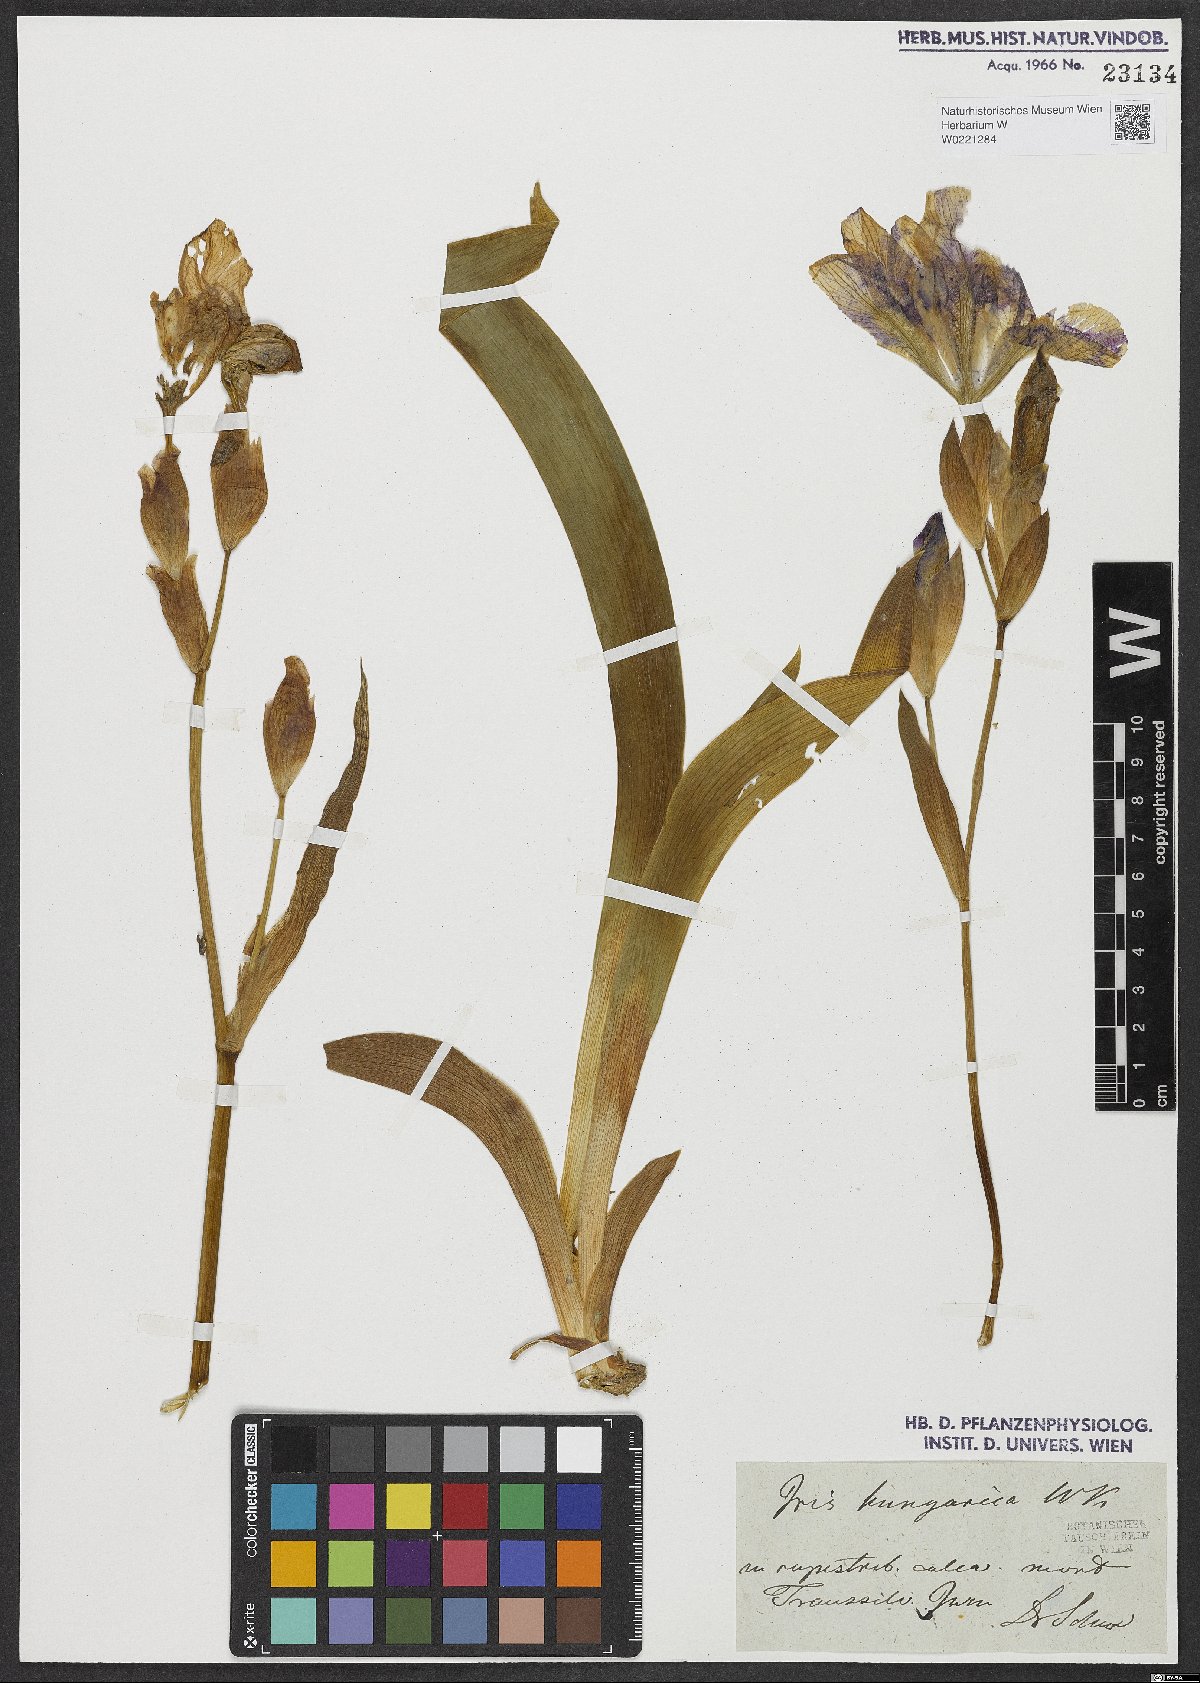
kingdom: Plantae
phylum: Tracheophyta
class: Liliopsida
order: Asparagales
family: Iridaceae
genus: Iris
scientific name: Iris aphylla
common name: Stool iris
